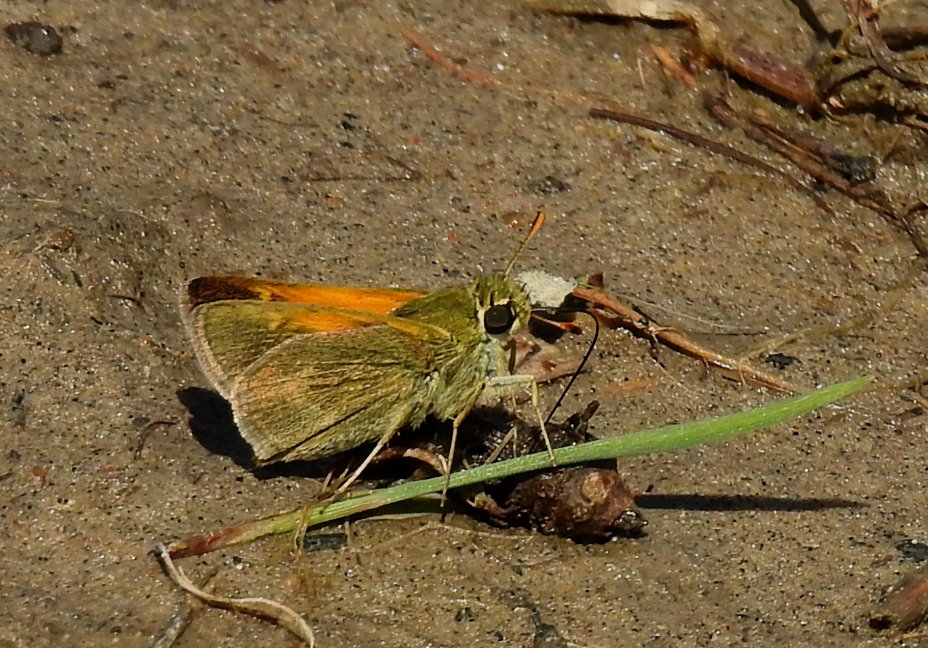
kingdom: Animalia
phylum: Arthropoda
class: Insecta
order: Lepidoptera
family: Hesperiidae
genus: Polites
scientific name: Polites themistocles
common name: Tawny-edged Skipper
